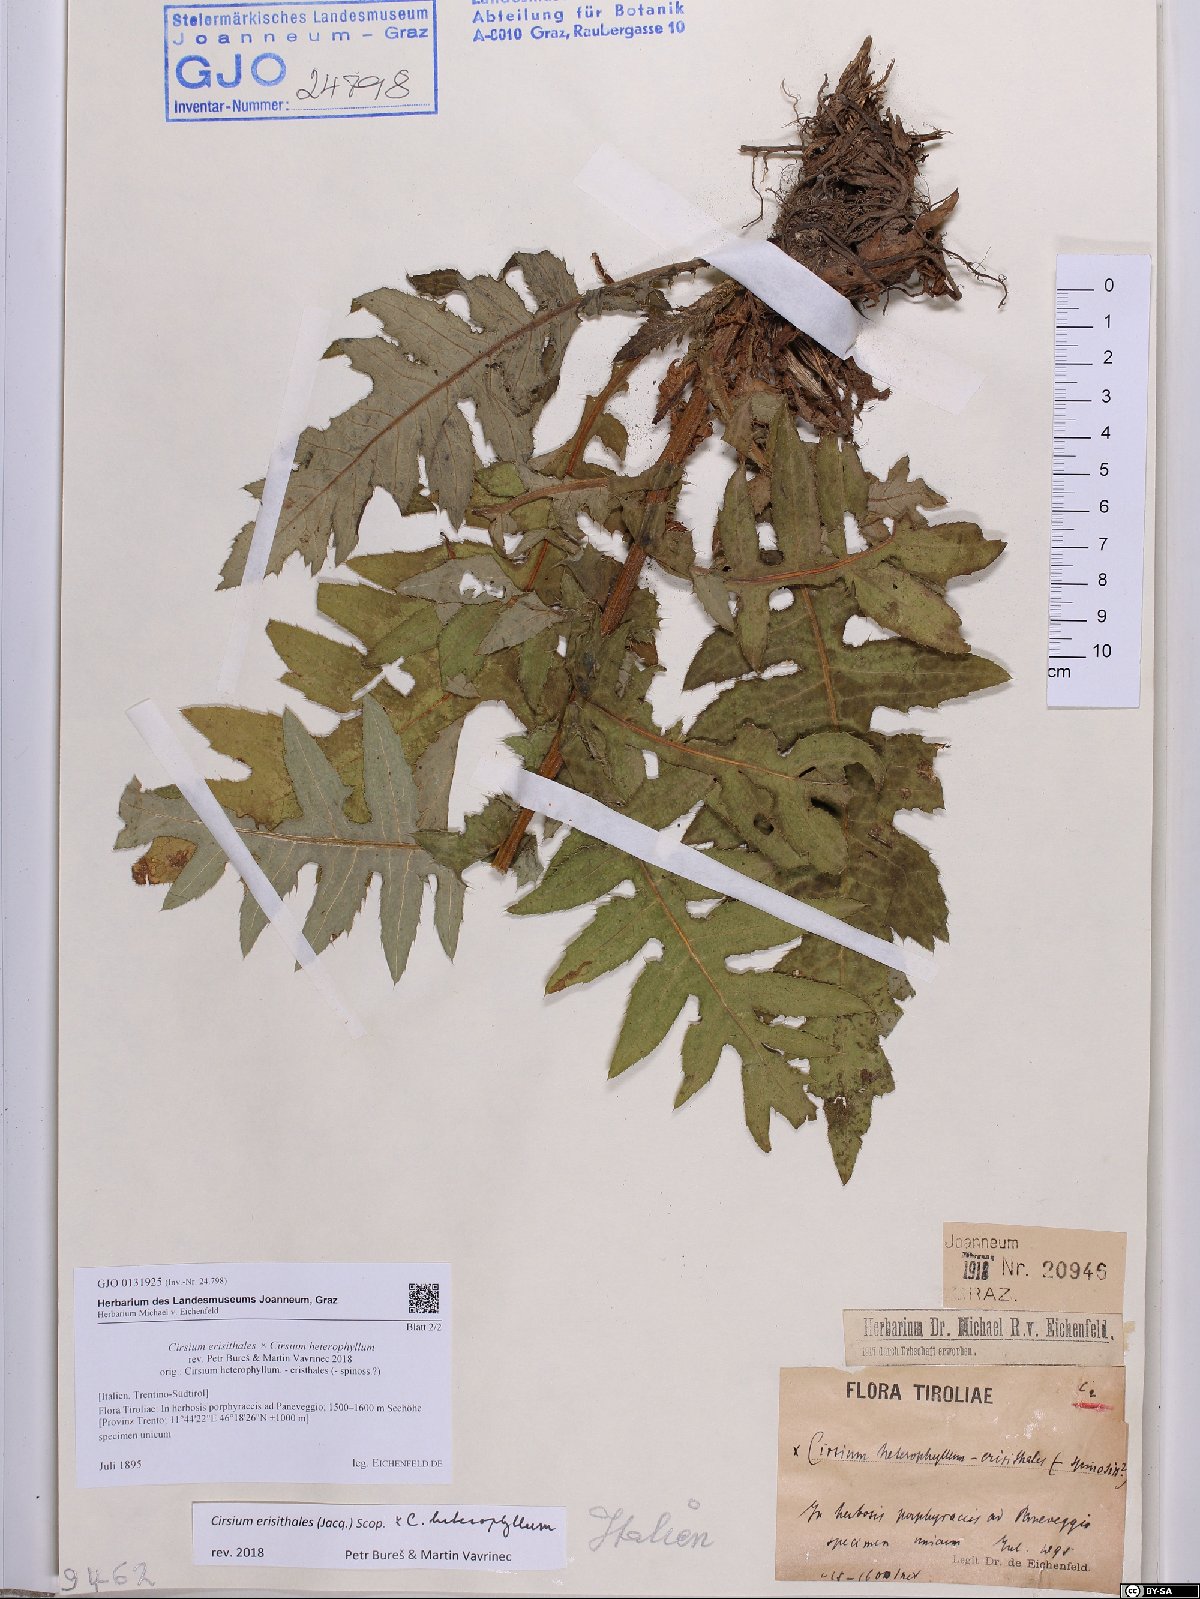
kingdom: Plantae
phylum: Tracheophyta
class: Magnoliopsida
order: Asterales
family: Asteraceae
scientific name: Asteraceae
